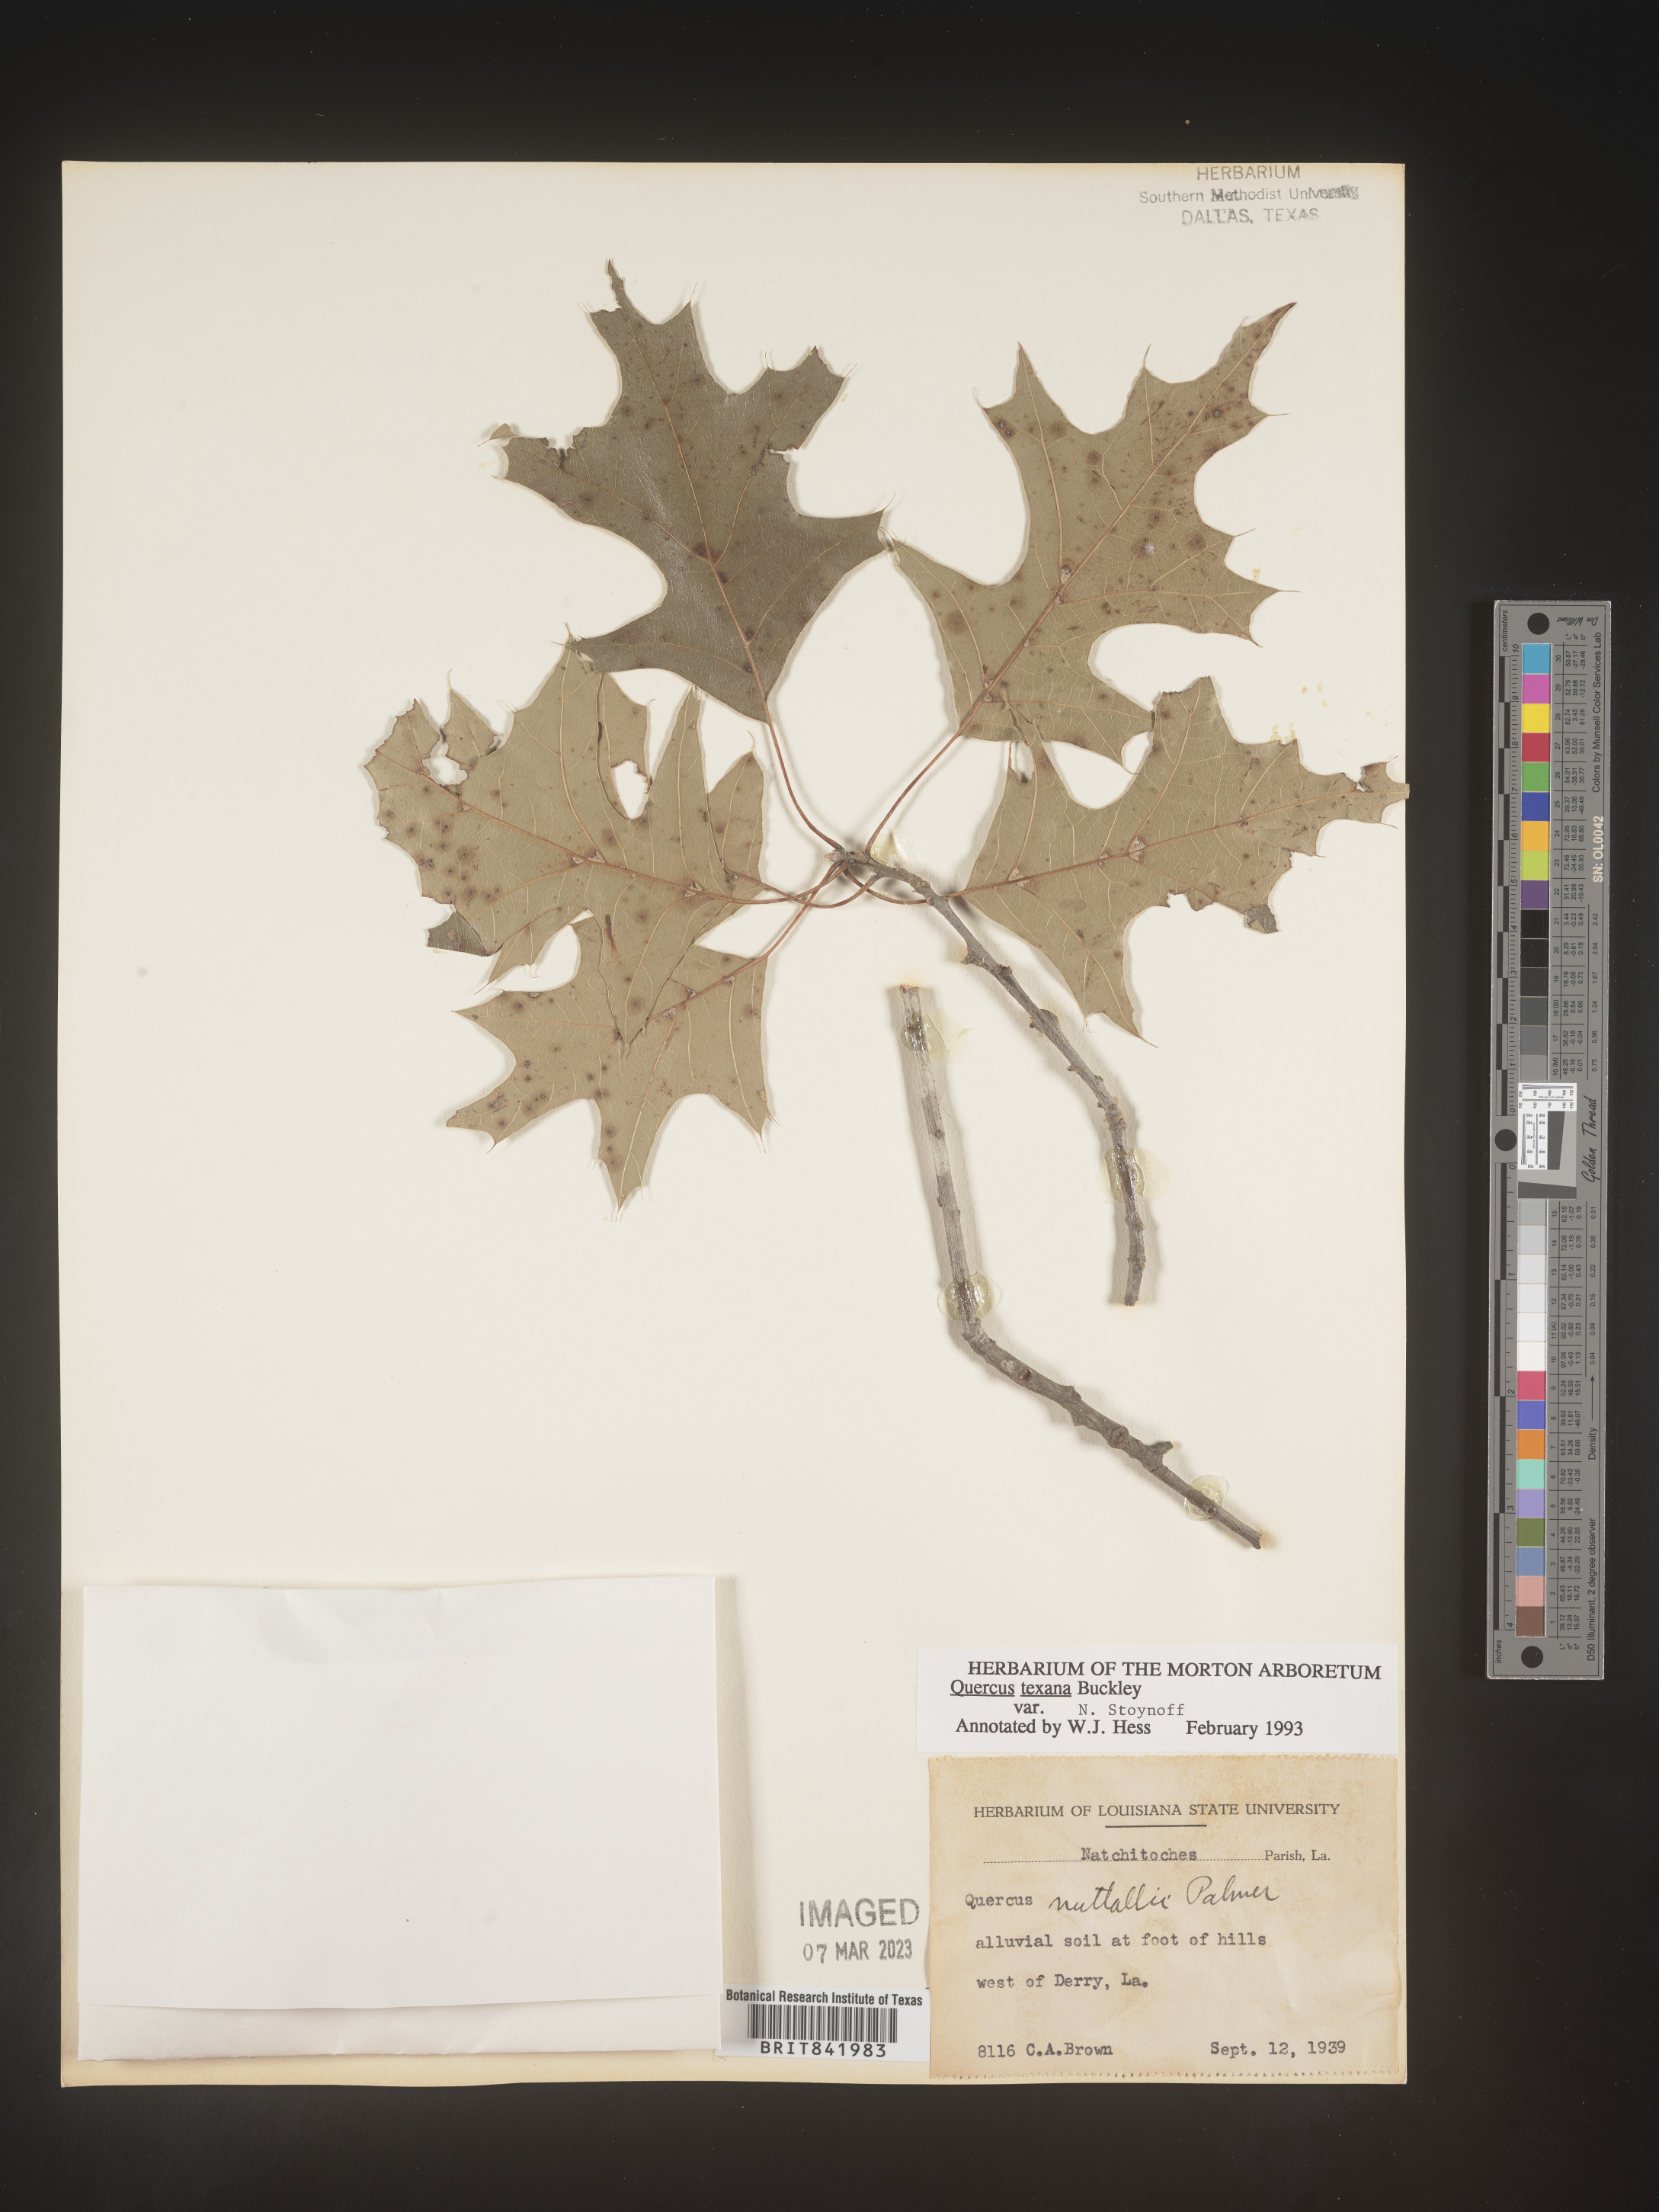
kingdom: Plantae
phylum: Tracheophyta
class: Magnoliopsida
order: Fagales
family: Fagaceae
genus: Quercus
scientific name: Quercus texana
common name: Nuttall oak
